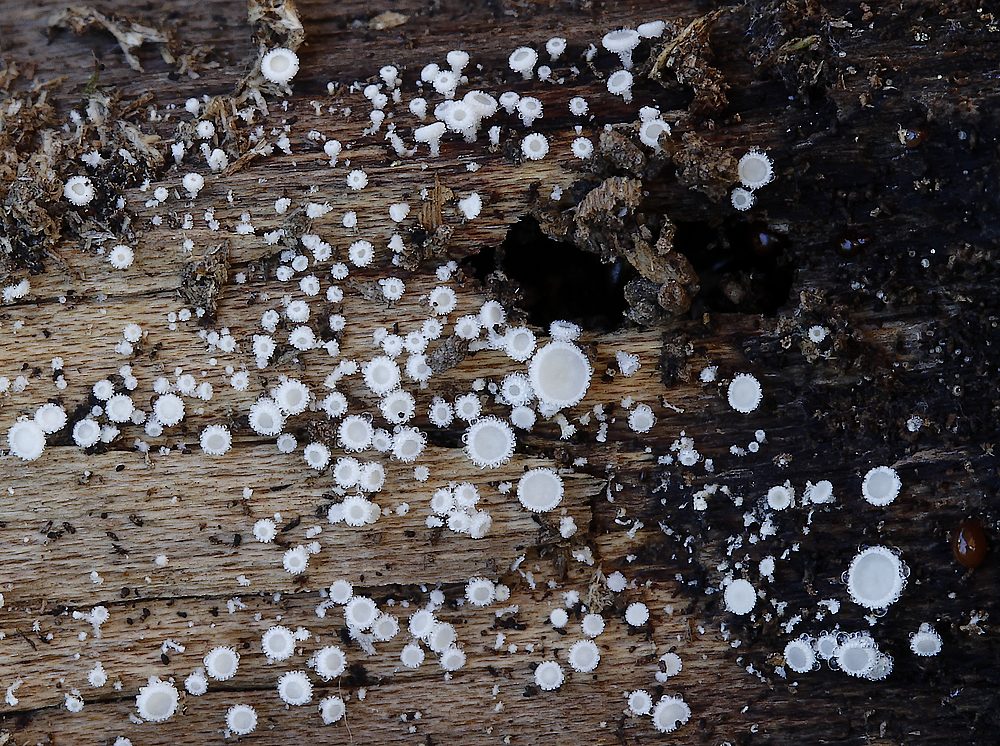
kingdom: Fungi
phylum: Ascomycota
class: Leotiomycetes
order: Helotiales
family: Lachnaceae
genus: Lachnum
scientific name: Lachnum
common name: frynseskive
